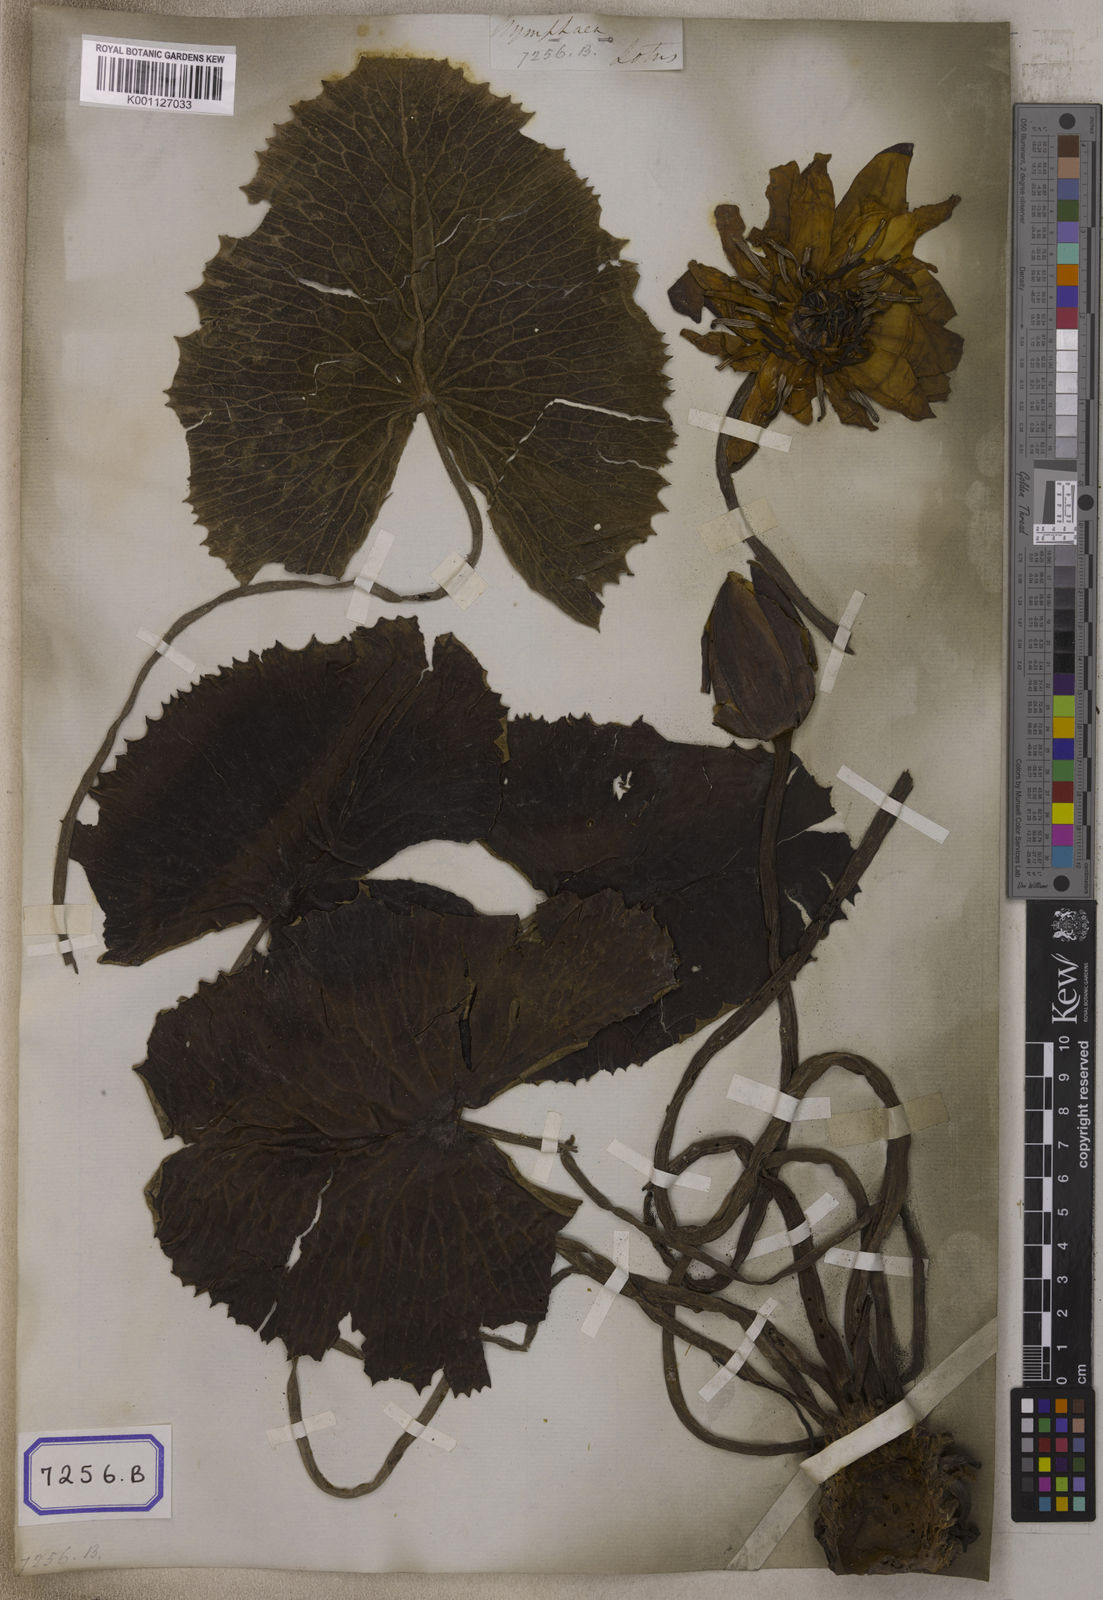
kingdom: Plantae
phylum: Tracheophyta
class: Magnoliopsida
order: Nymphaeales
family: Nymphaeaceae
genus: Nymphaea
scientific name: Nymphaea pubescens
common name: Hairy water lily
